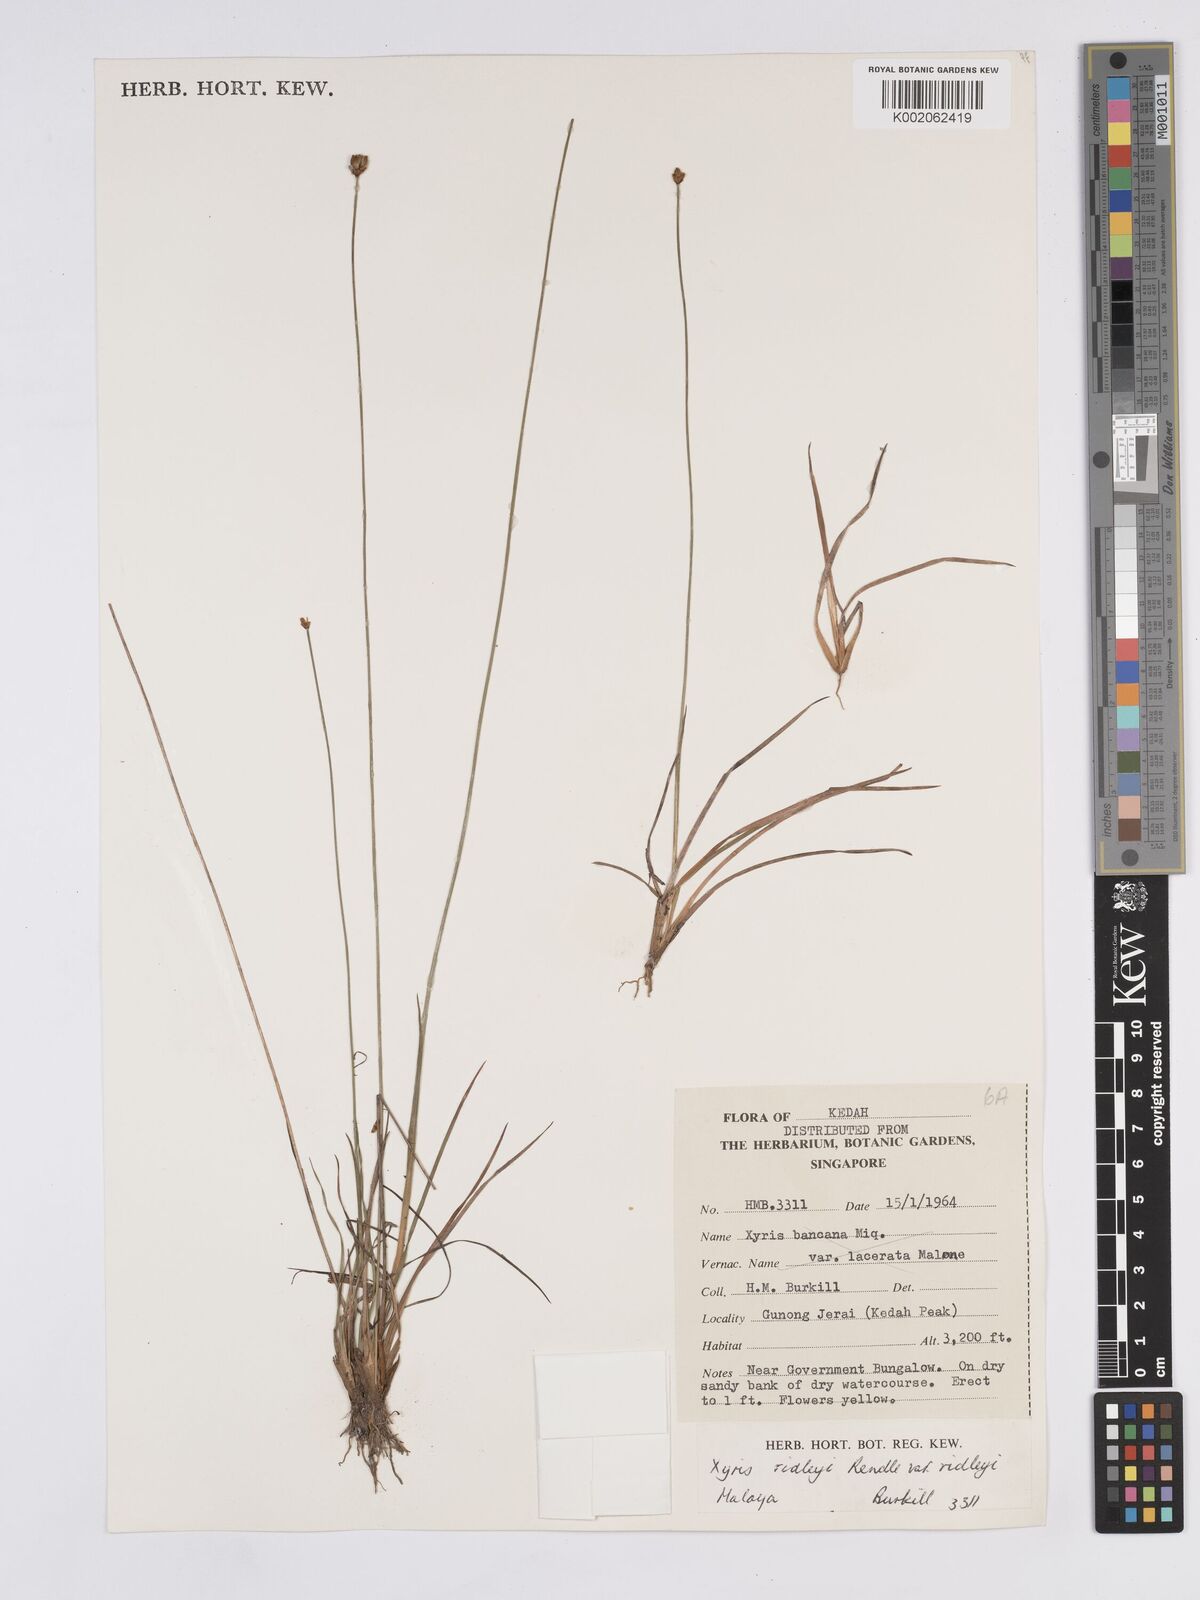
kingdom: Plantae
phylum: Tracheophyta
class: Liliopsida
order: Poales
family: Xyridaceae
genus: Xyris
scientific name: Xyris bancana
